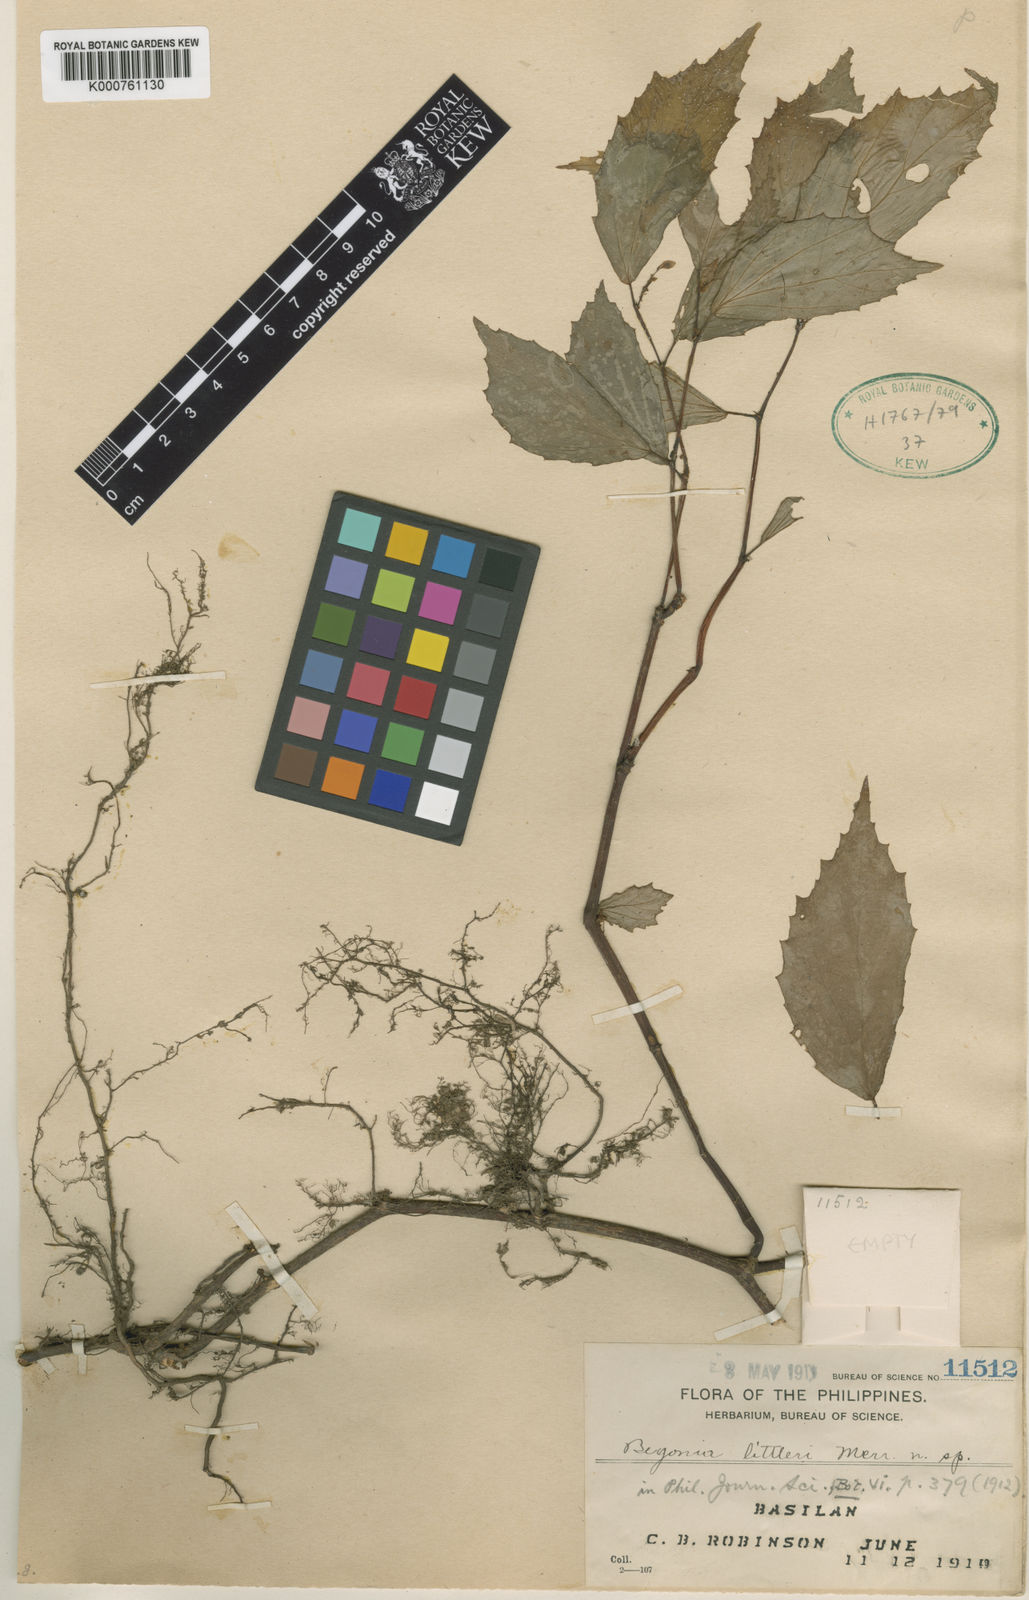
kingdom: Plantae
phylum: Tracheophyta
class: Magnoliopsida
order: Cucurbitales
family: Begoniaceae
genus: Begonia
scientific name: Begonia littleri
